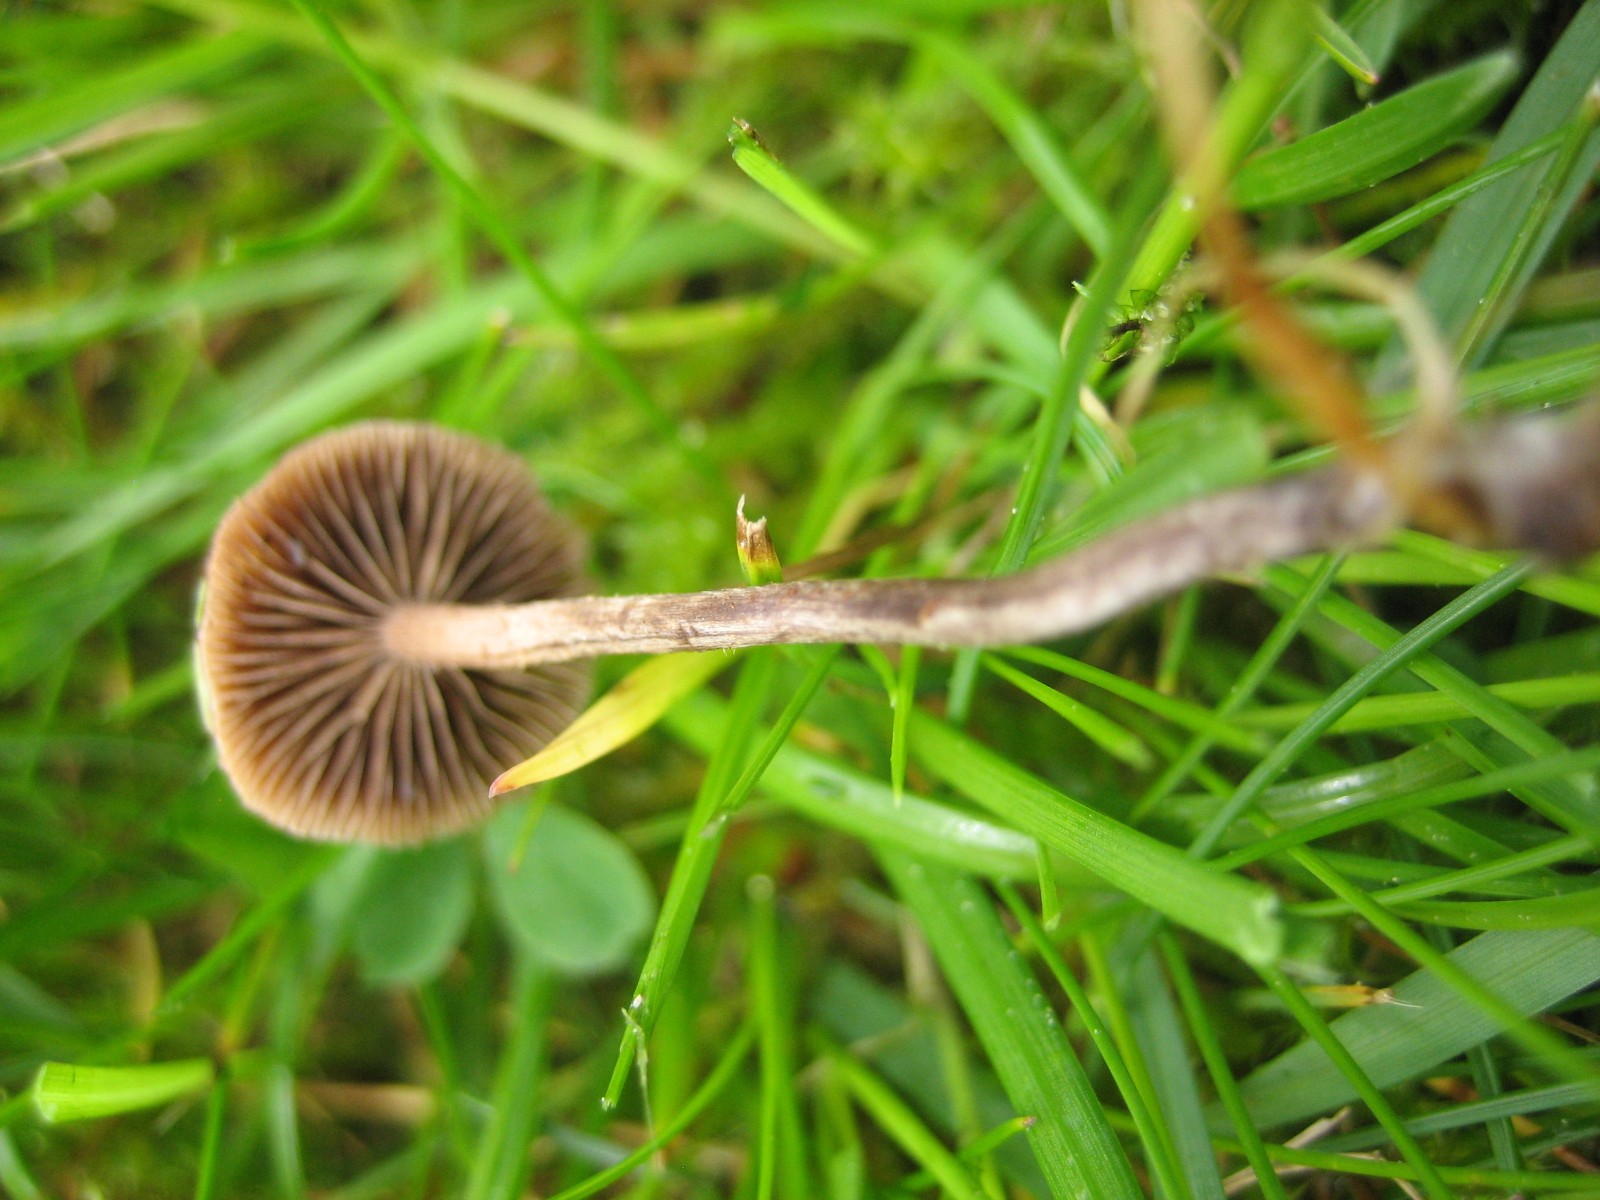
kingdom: Fungi
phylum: Basidiomycota
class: Agaricomycetes
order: Agaricales
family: Strophariaceae
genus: Deconica
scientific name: Deconica
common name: stråhat
